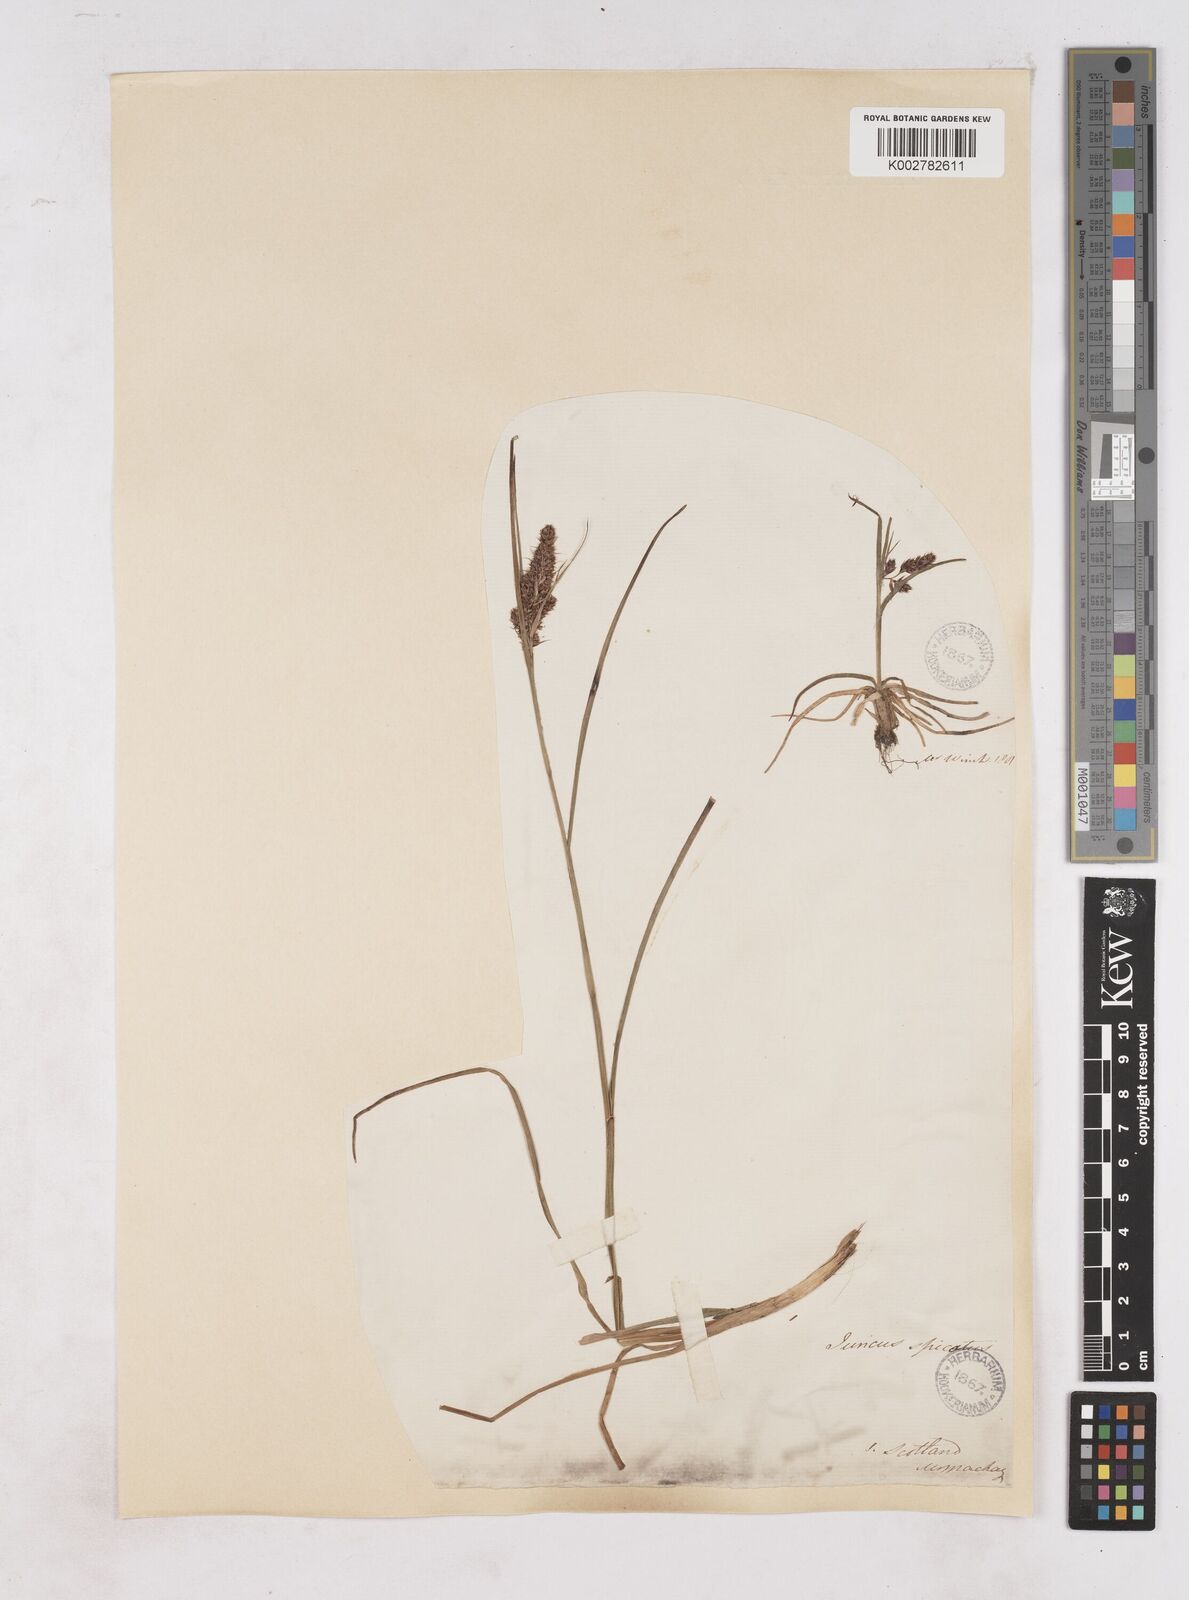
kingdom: Plantae
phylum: Tracheophyta
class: Liliopsida
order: Poales
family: Juncaceae
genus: Luzula
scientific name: Luzula spicata
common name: Spiked wood-rush
